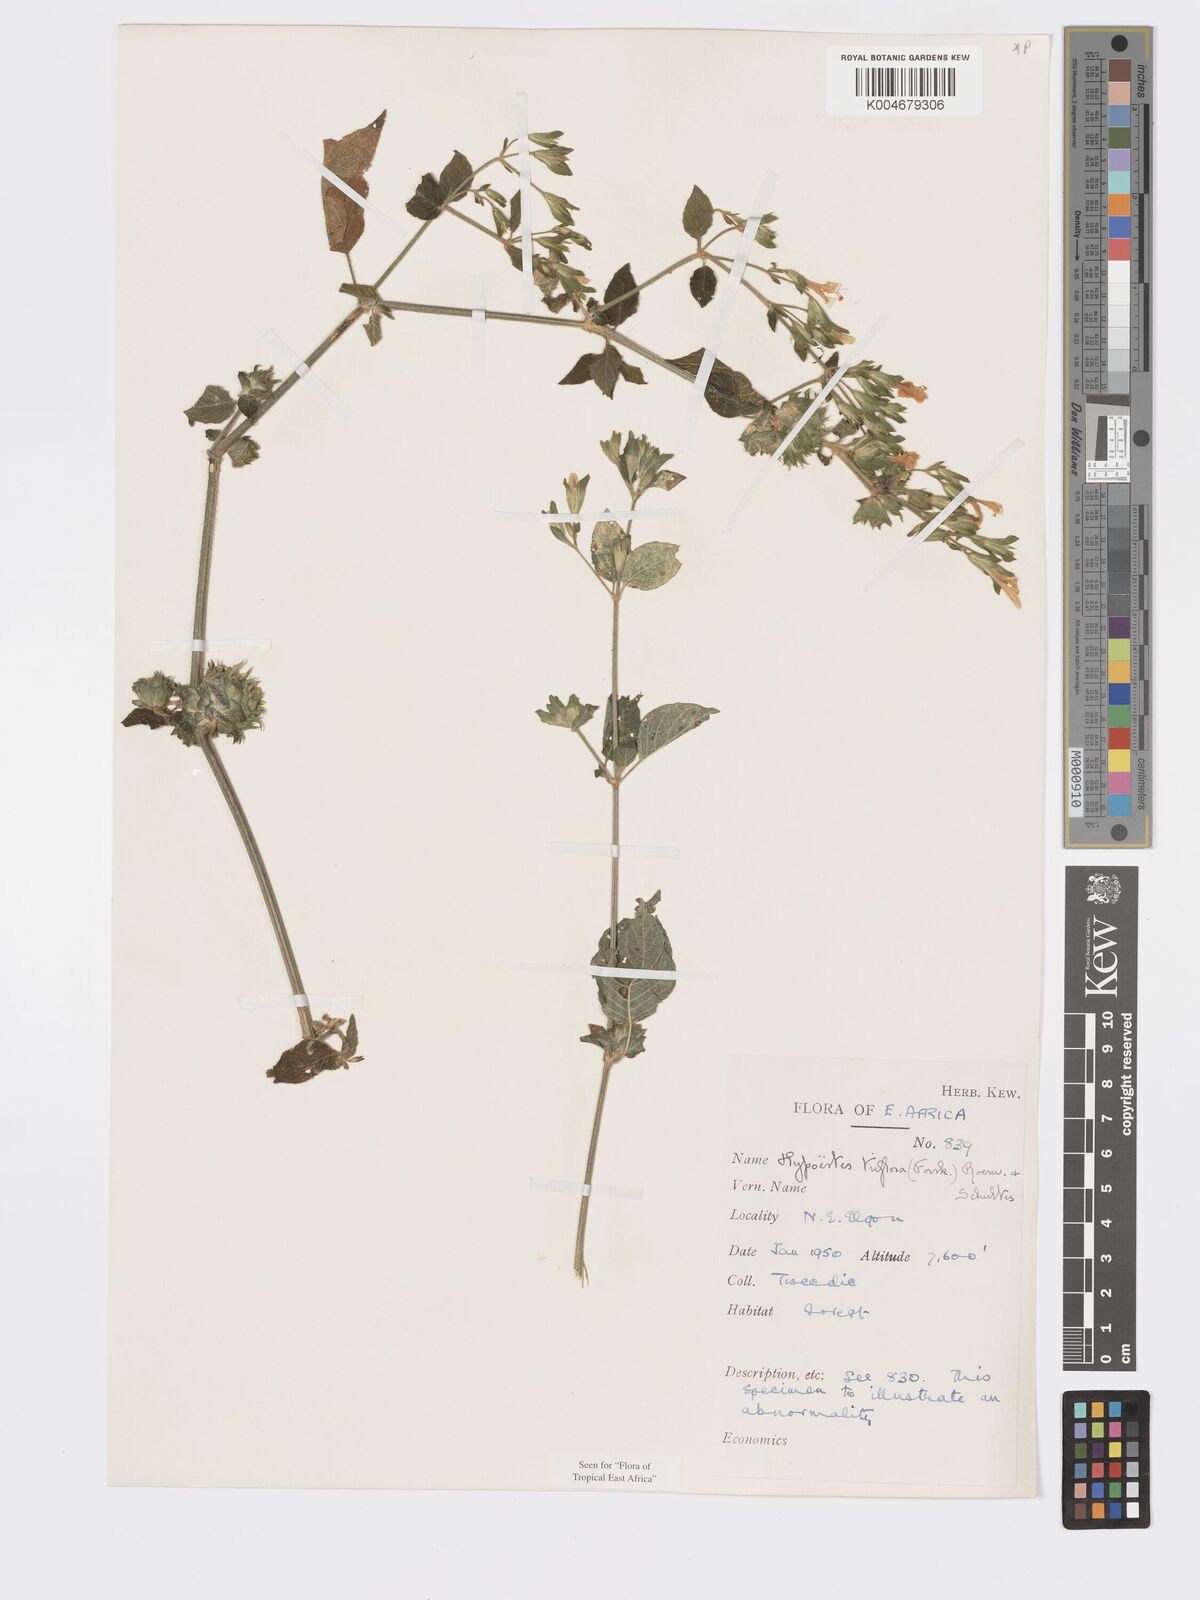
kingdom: Plantae
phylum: Tracheophyta
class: Magnoliopsida
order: Lamiales
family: Acanthaceae
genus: Hypoestes
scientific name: Hypoestes triflora
